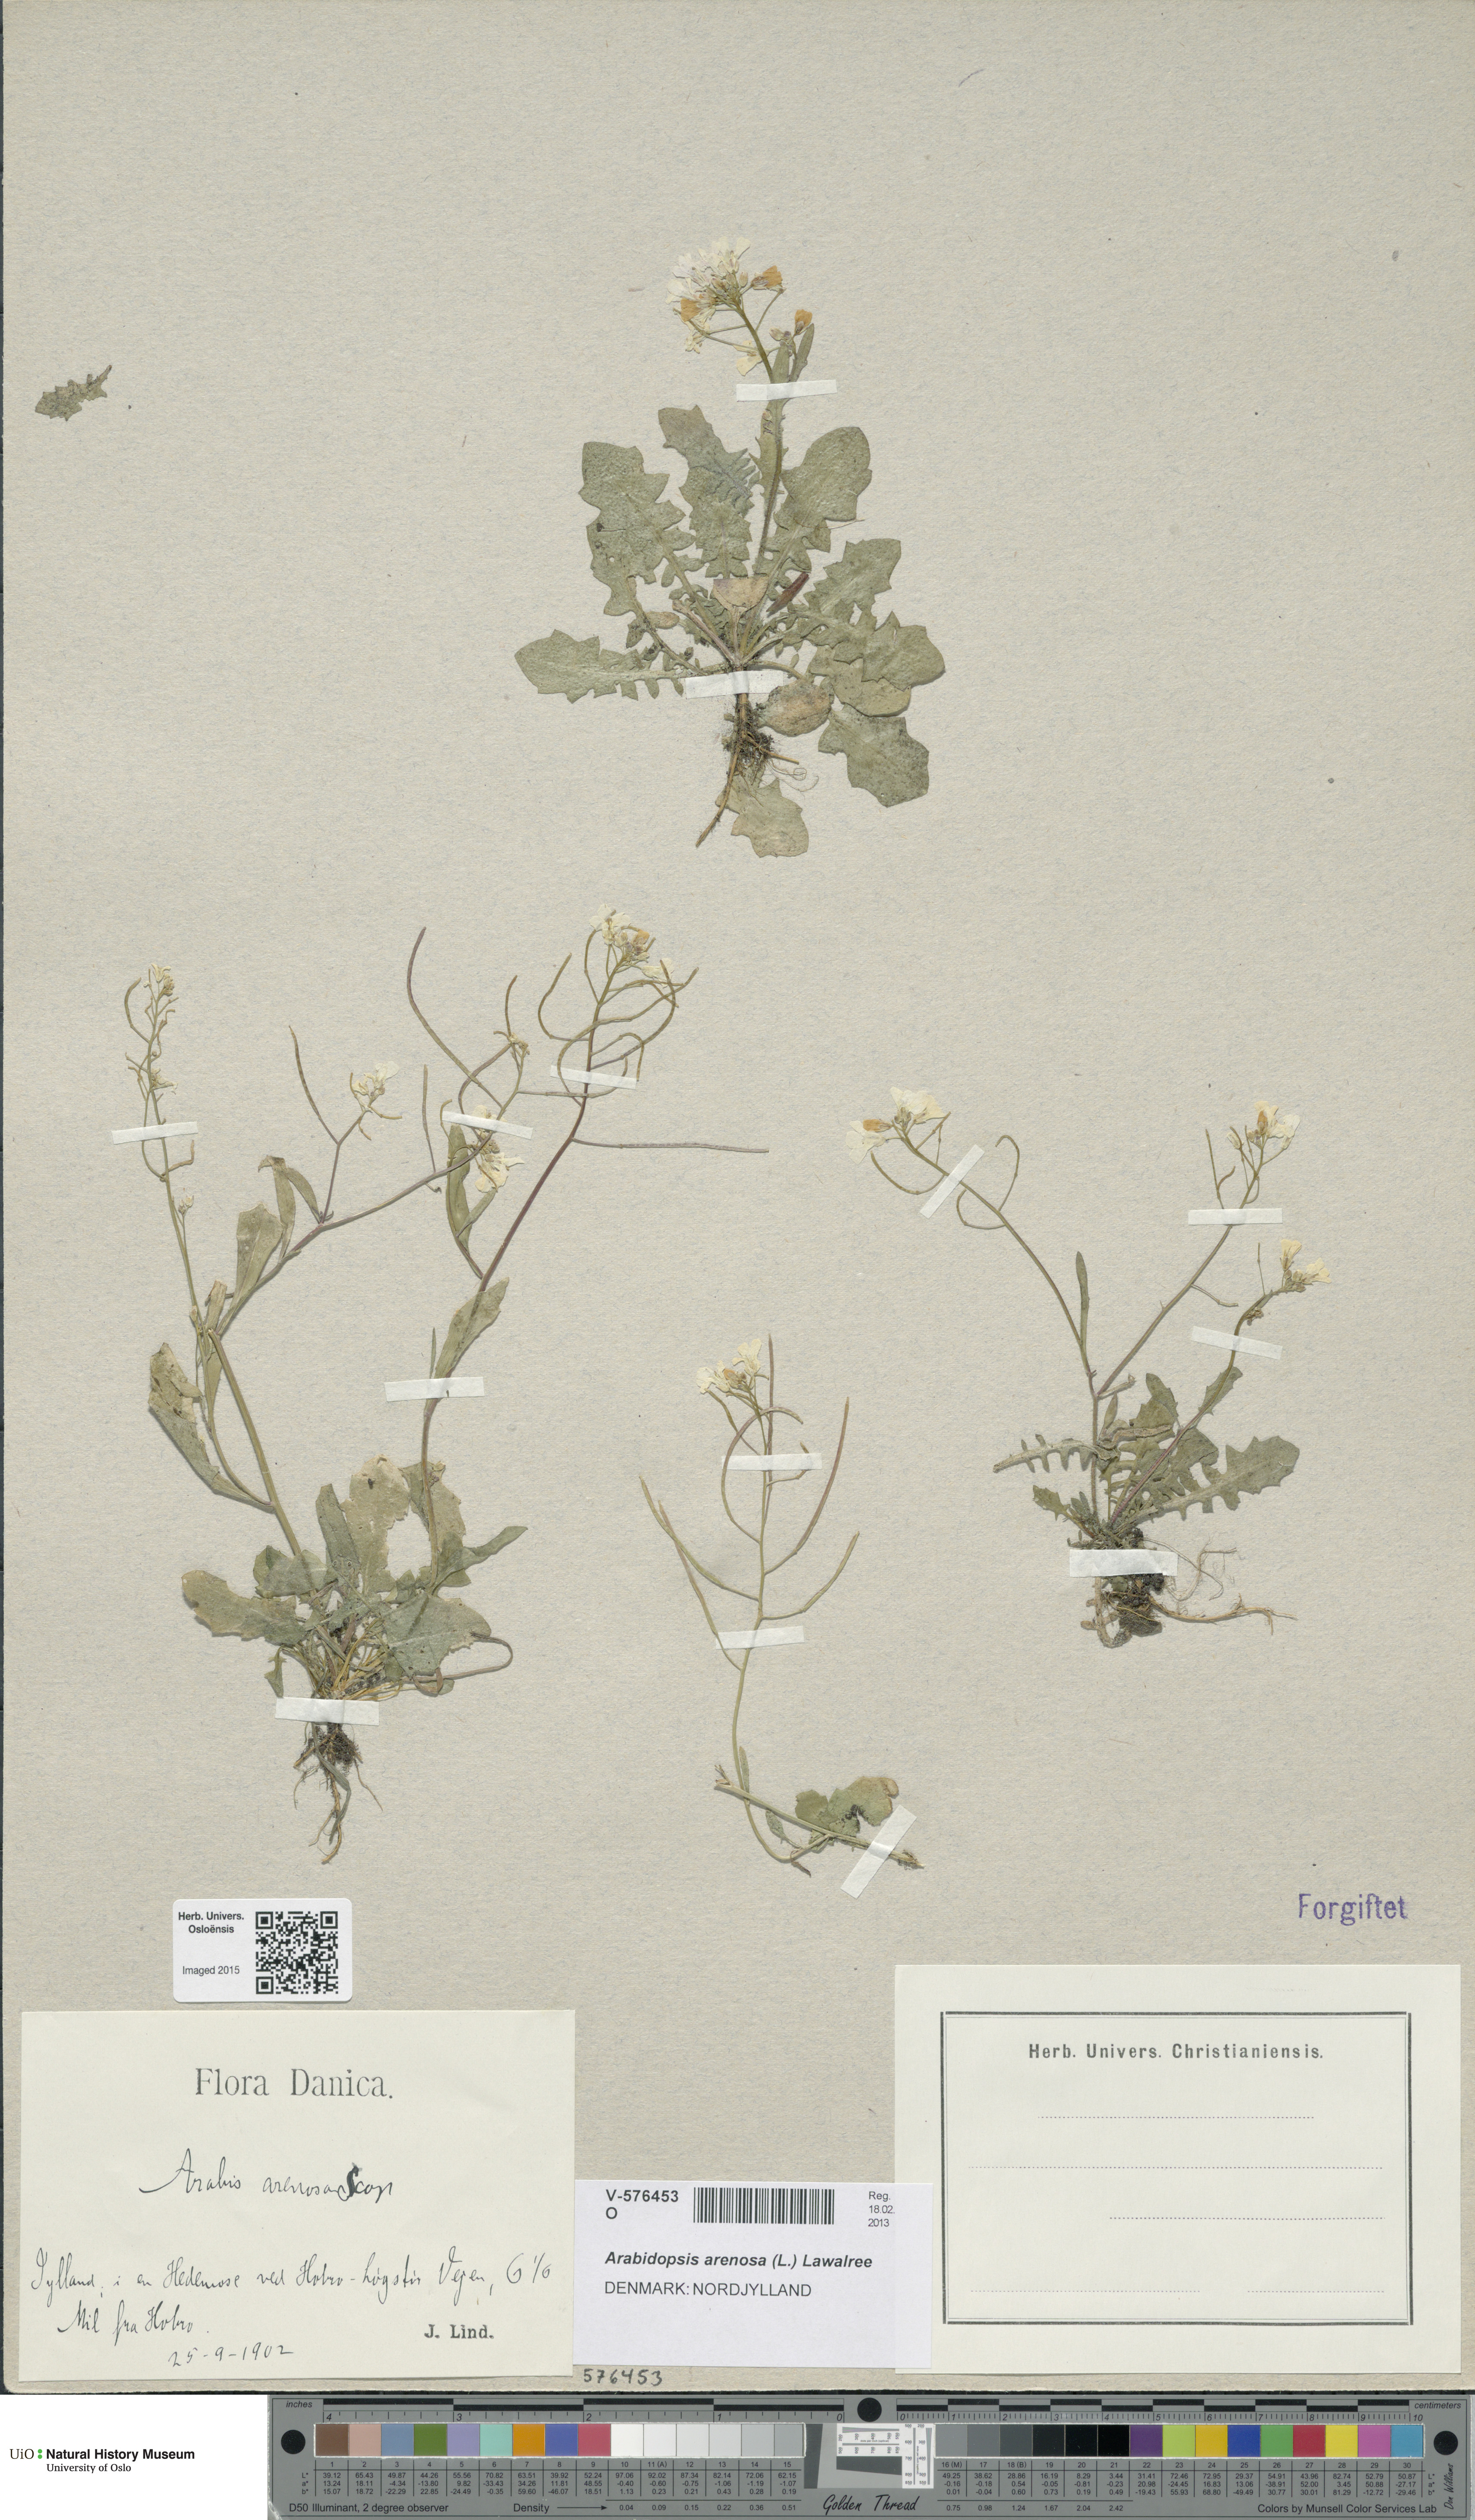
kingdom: Plantae
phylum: Tracheophyta
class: Magnoliopsida
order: Brassicales
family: Brassicaceae
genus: Arabidopsis
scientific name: Arabidopsis arenosa
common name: Sand rock-cress
